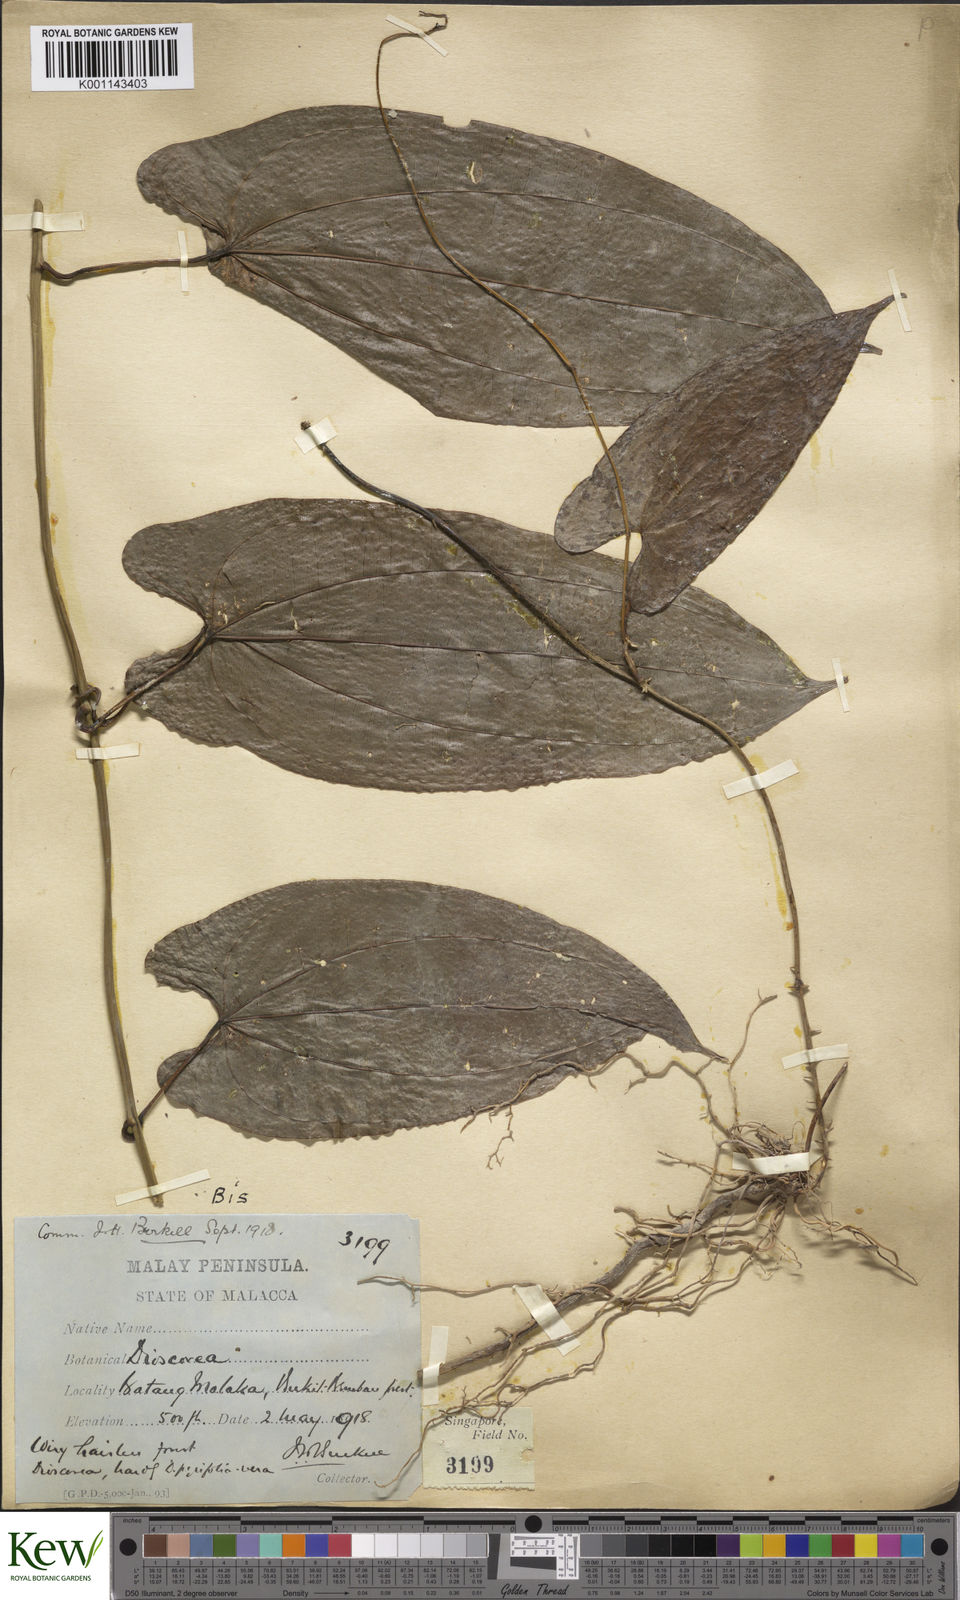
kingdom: Plantae
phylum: Tracheophyta
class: Liliopsida
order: Dioscoreales
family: Dioscoreaceae
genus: Dioscorea
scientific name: Dioscorea pyrifolia
